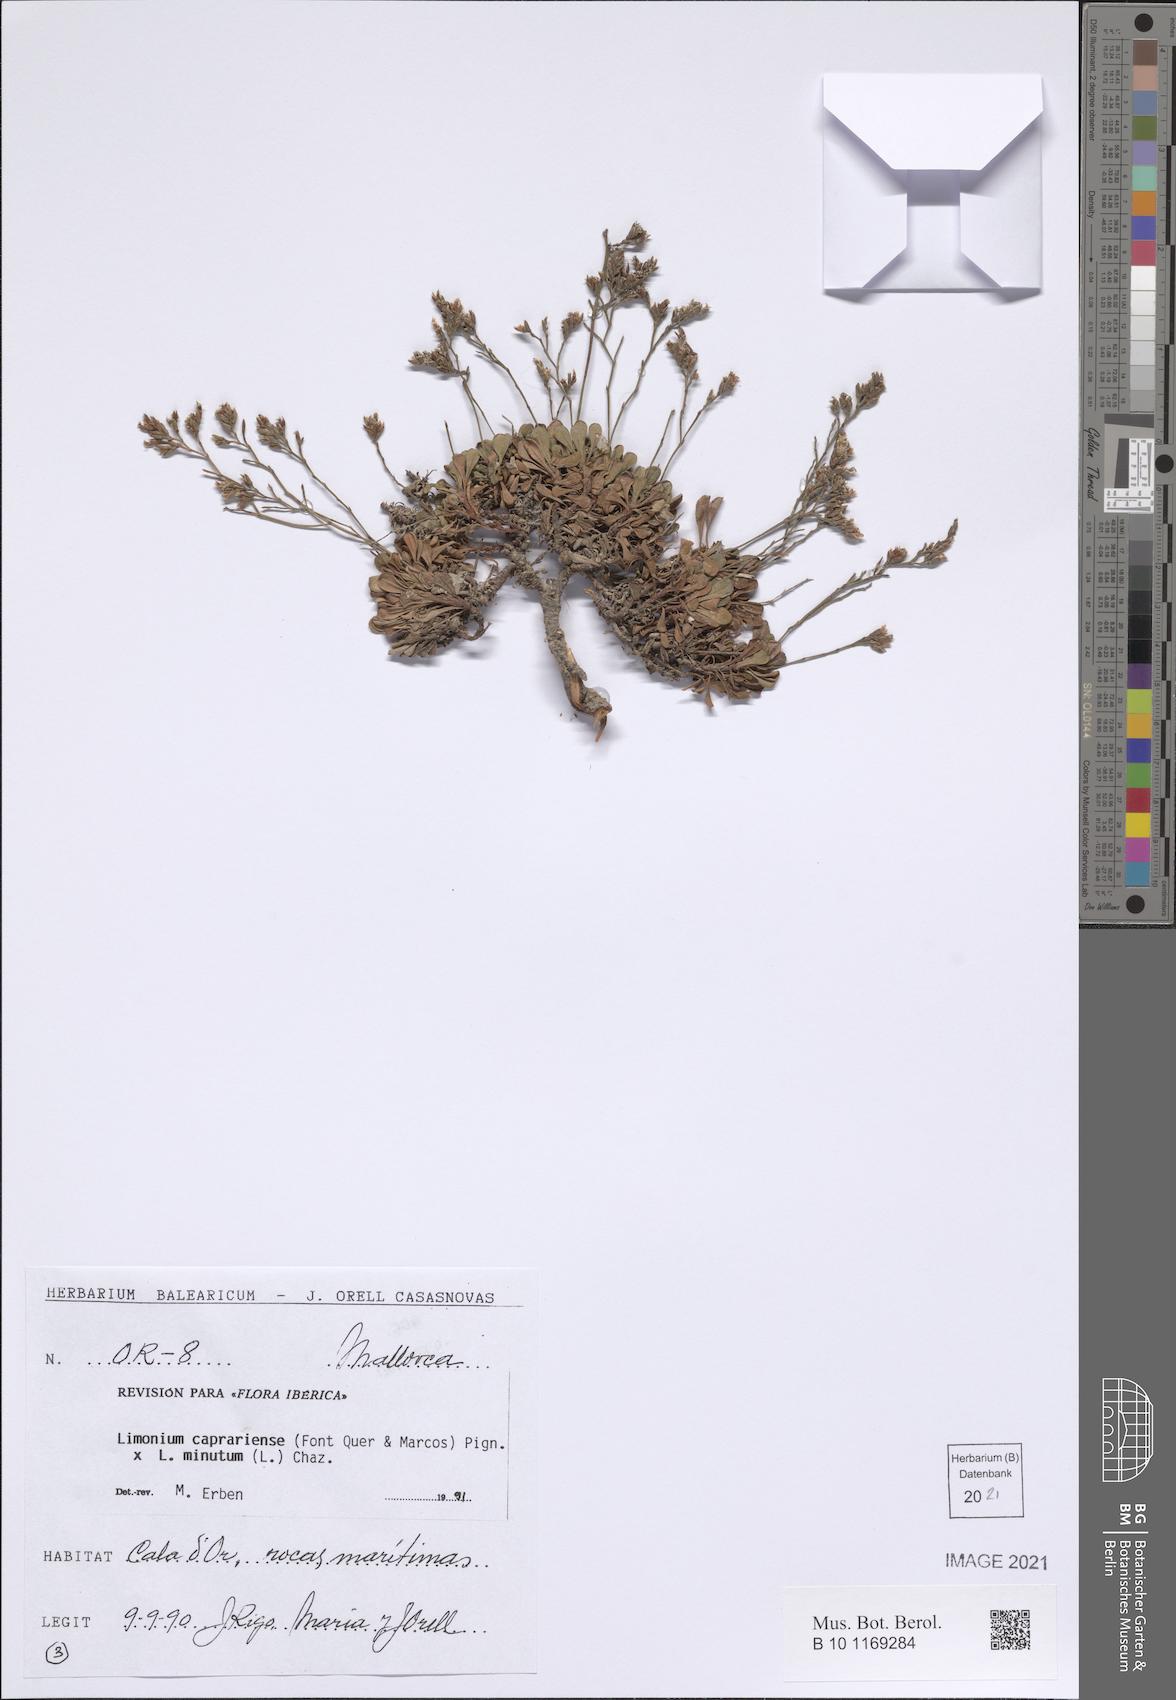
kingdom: Plantae
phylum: Tracheophyta
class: Magnoliopsida
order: Caryophyllales
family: Plumbaginaceae
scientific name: Plumbaginaceae
